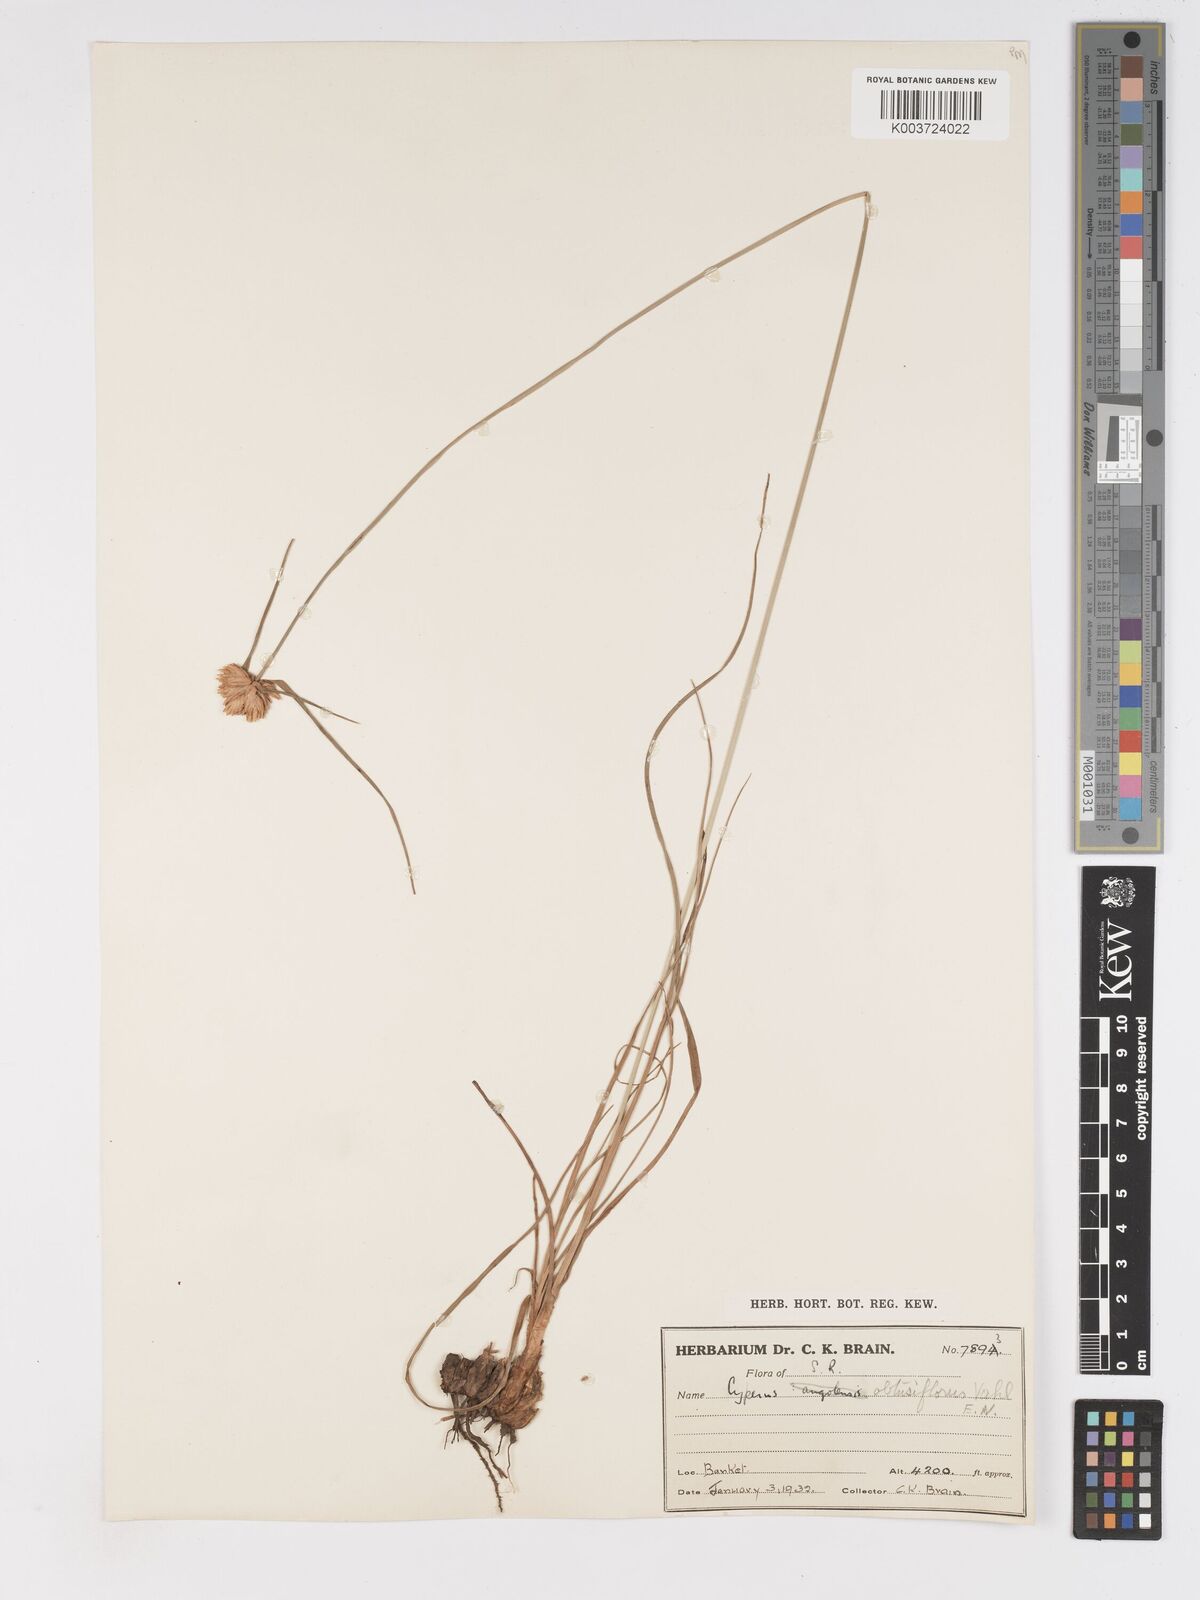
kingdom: Plantae
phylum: Tracheophyta
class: Liliopsida
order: Poales
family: Cyperaceae
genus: Cyperus
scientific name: Cyperus niveus
